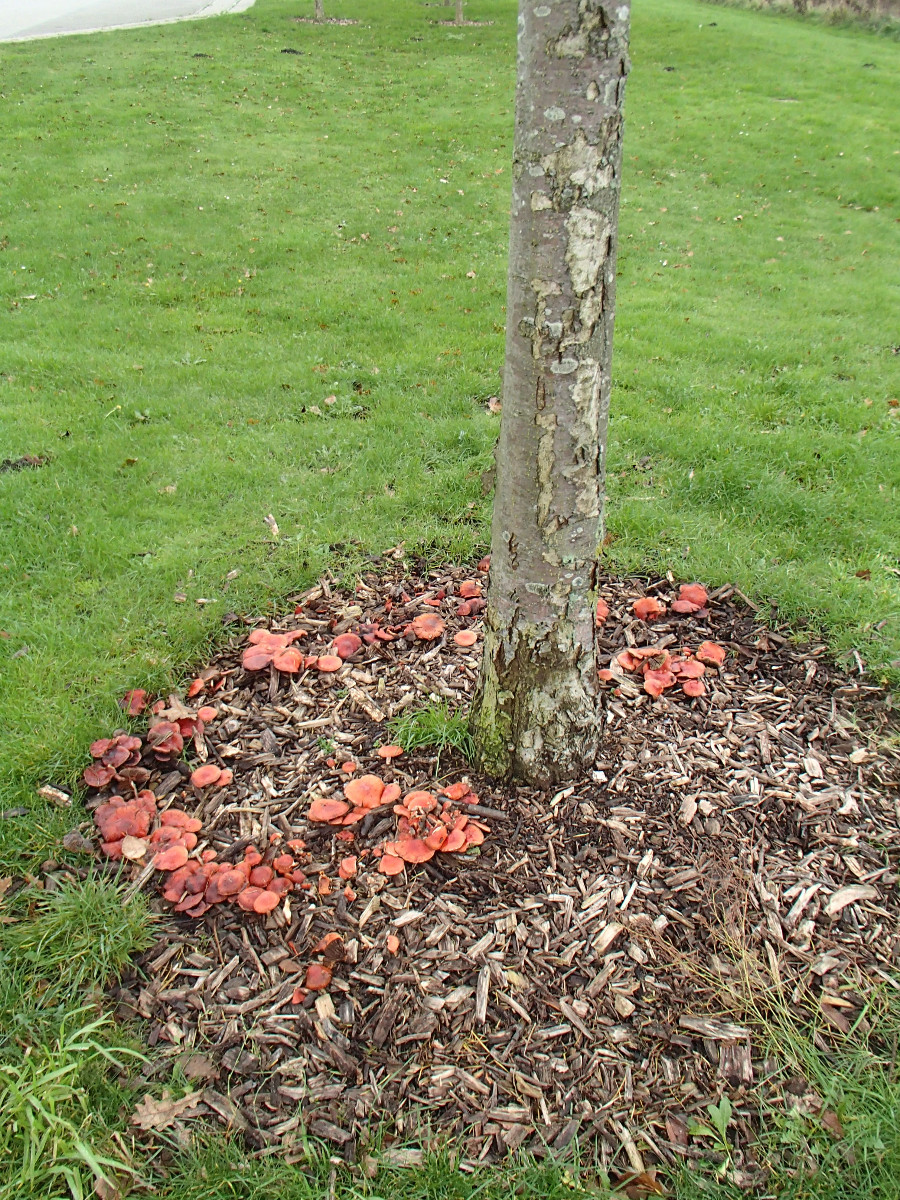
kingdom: Fungi
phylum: Basidiomycota
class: Agaricomycetes
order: Agaricales
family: Strophariaceae
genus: Leratiomyces
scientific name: Leratiomyces ceres
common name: orange bredblad
